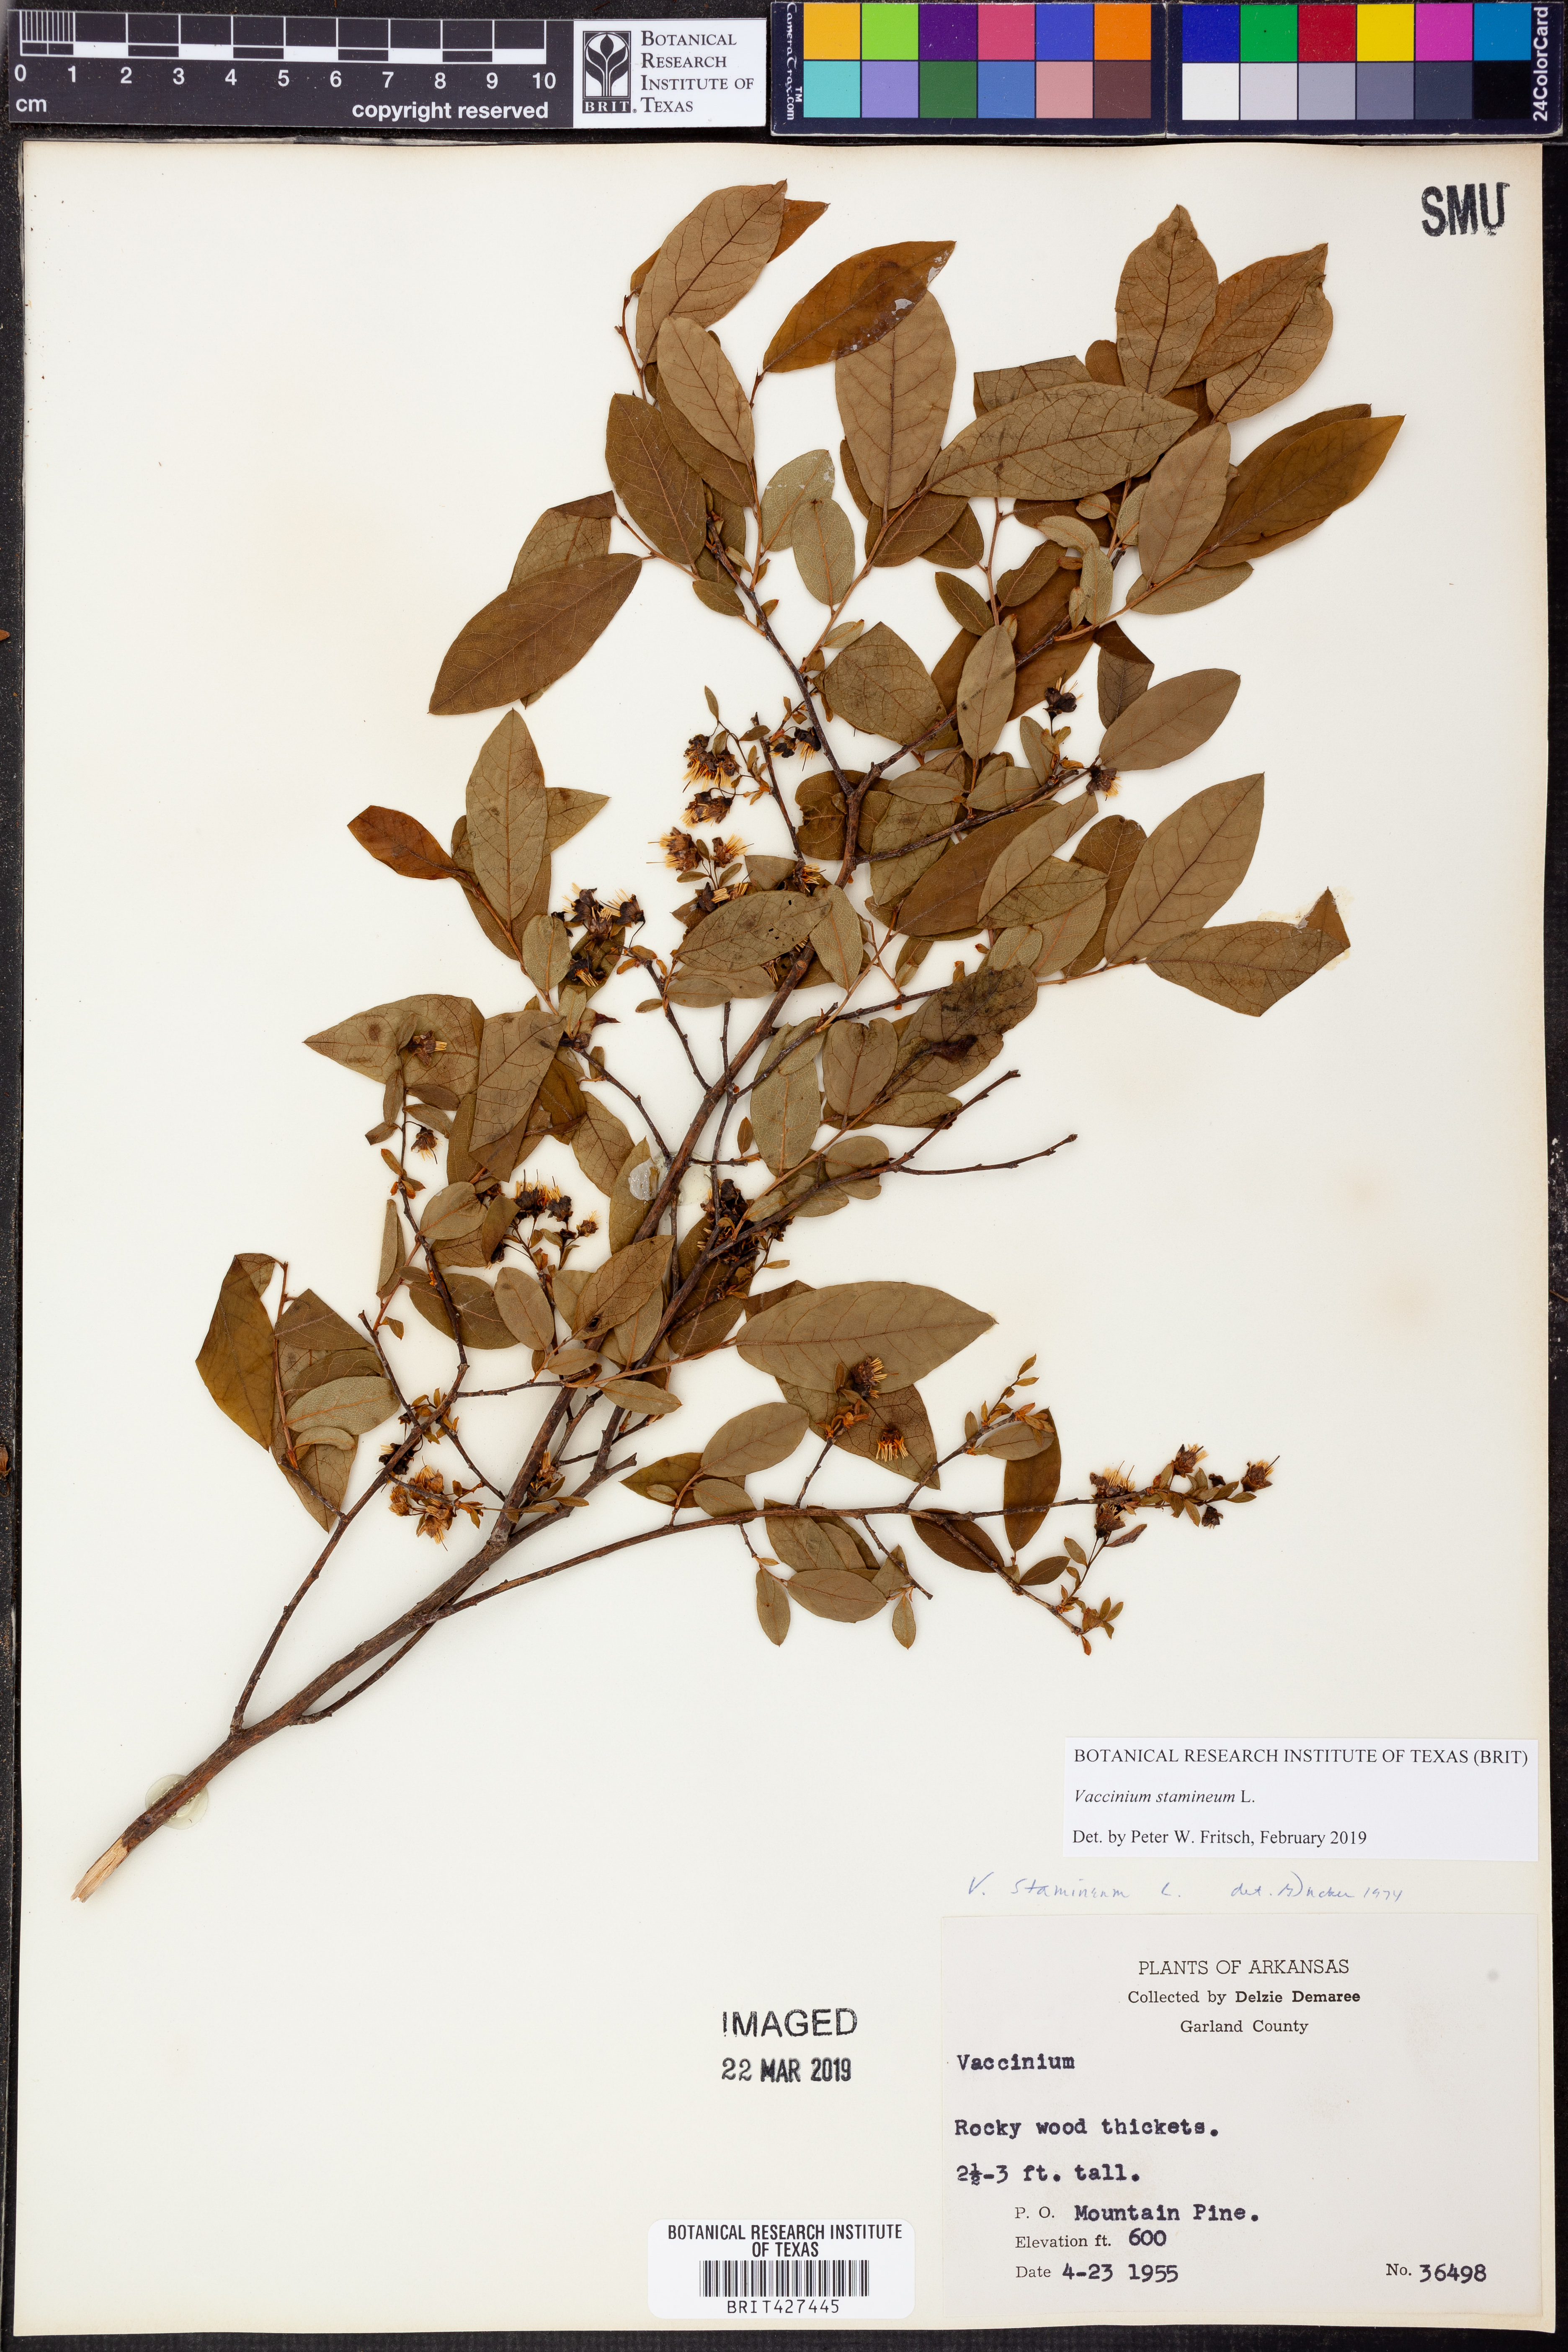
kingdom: Plantae
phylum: Tracheophyta
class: Magnoliopsida
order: Ericales
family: Ericaceae
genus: Vaccinium
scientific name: Vaccinium stamineum
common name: Deerberry
